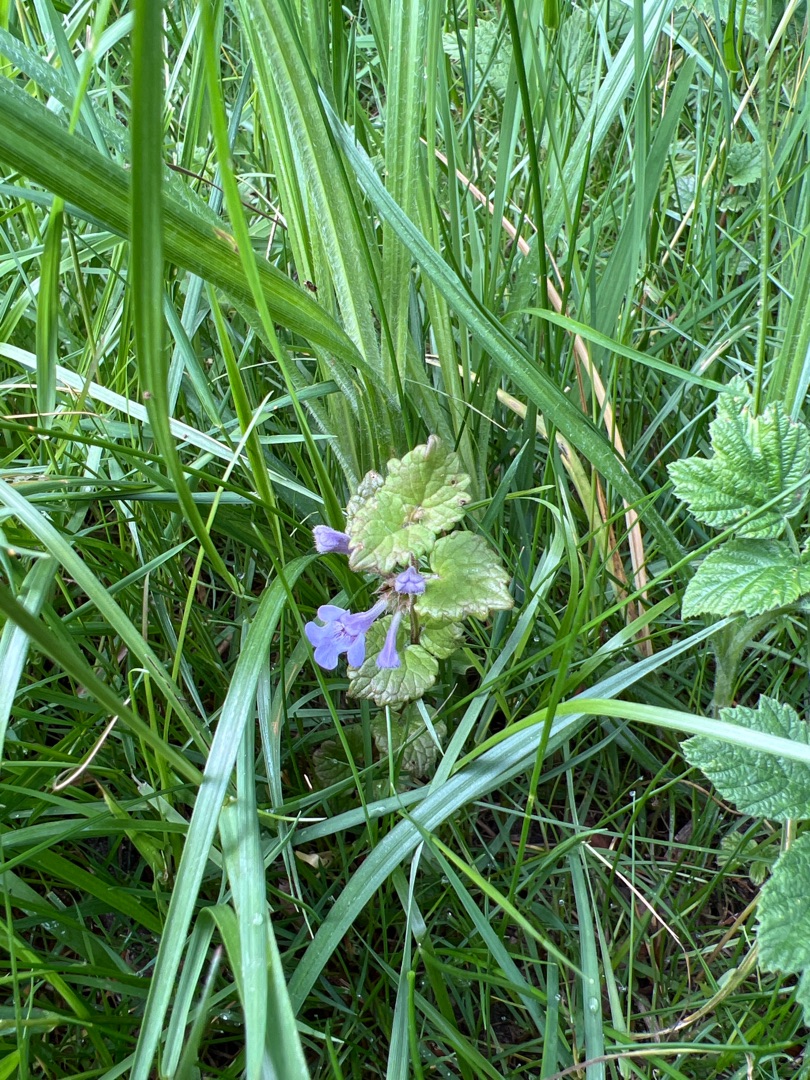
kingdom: Plantae
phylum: Tracheophyta
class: Magnoliopsida
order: Lamiales
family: Lamiaceae
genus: Glechoma
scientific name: Glechoma hederacea
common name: Korsknap
